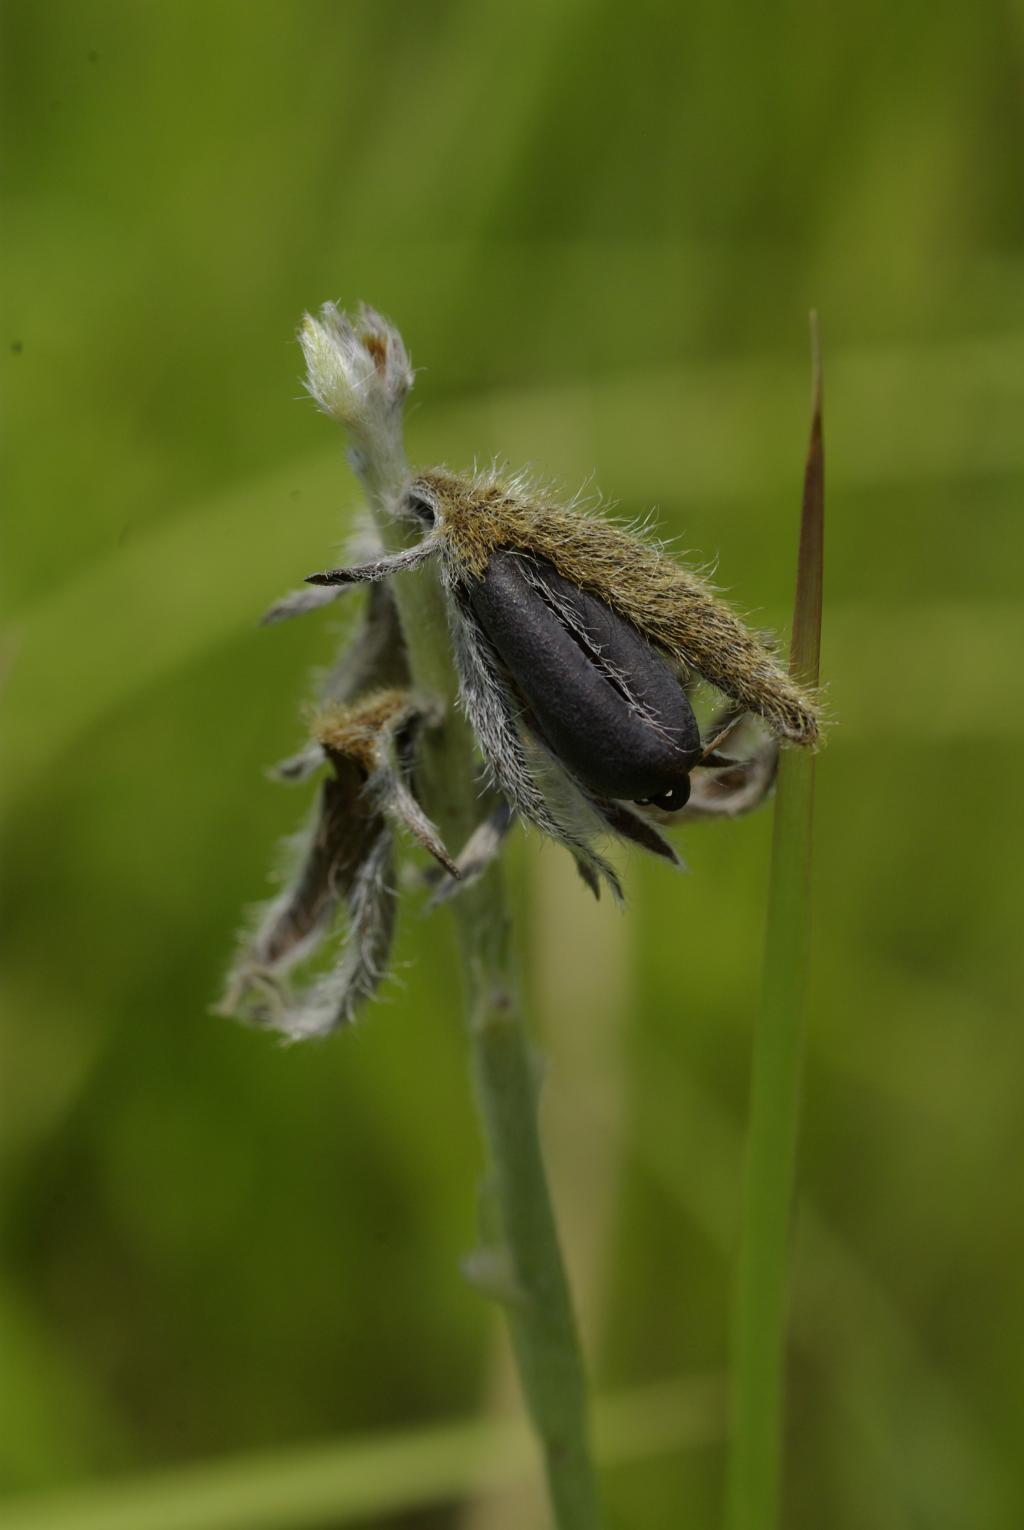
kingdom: Plantae
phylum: Tracheophyta
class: Magnoliopsida
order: Fabales
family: Fabaceae
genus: Crotalaria
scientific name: Crotalaria sessiliflora
